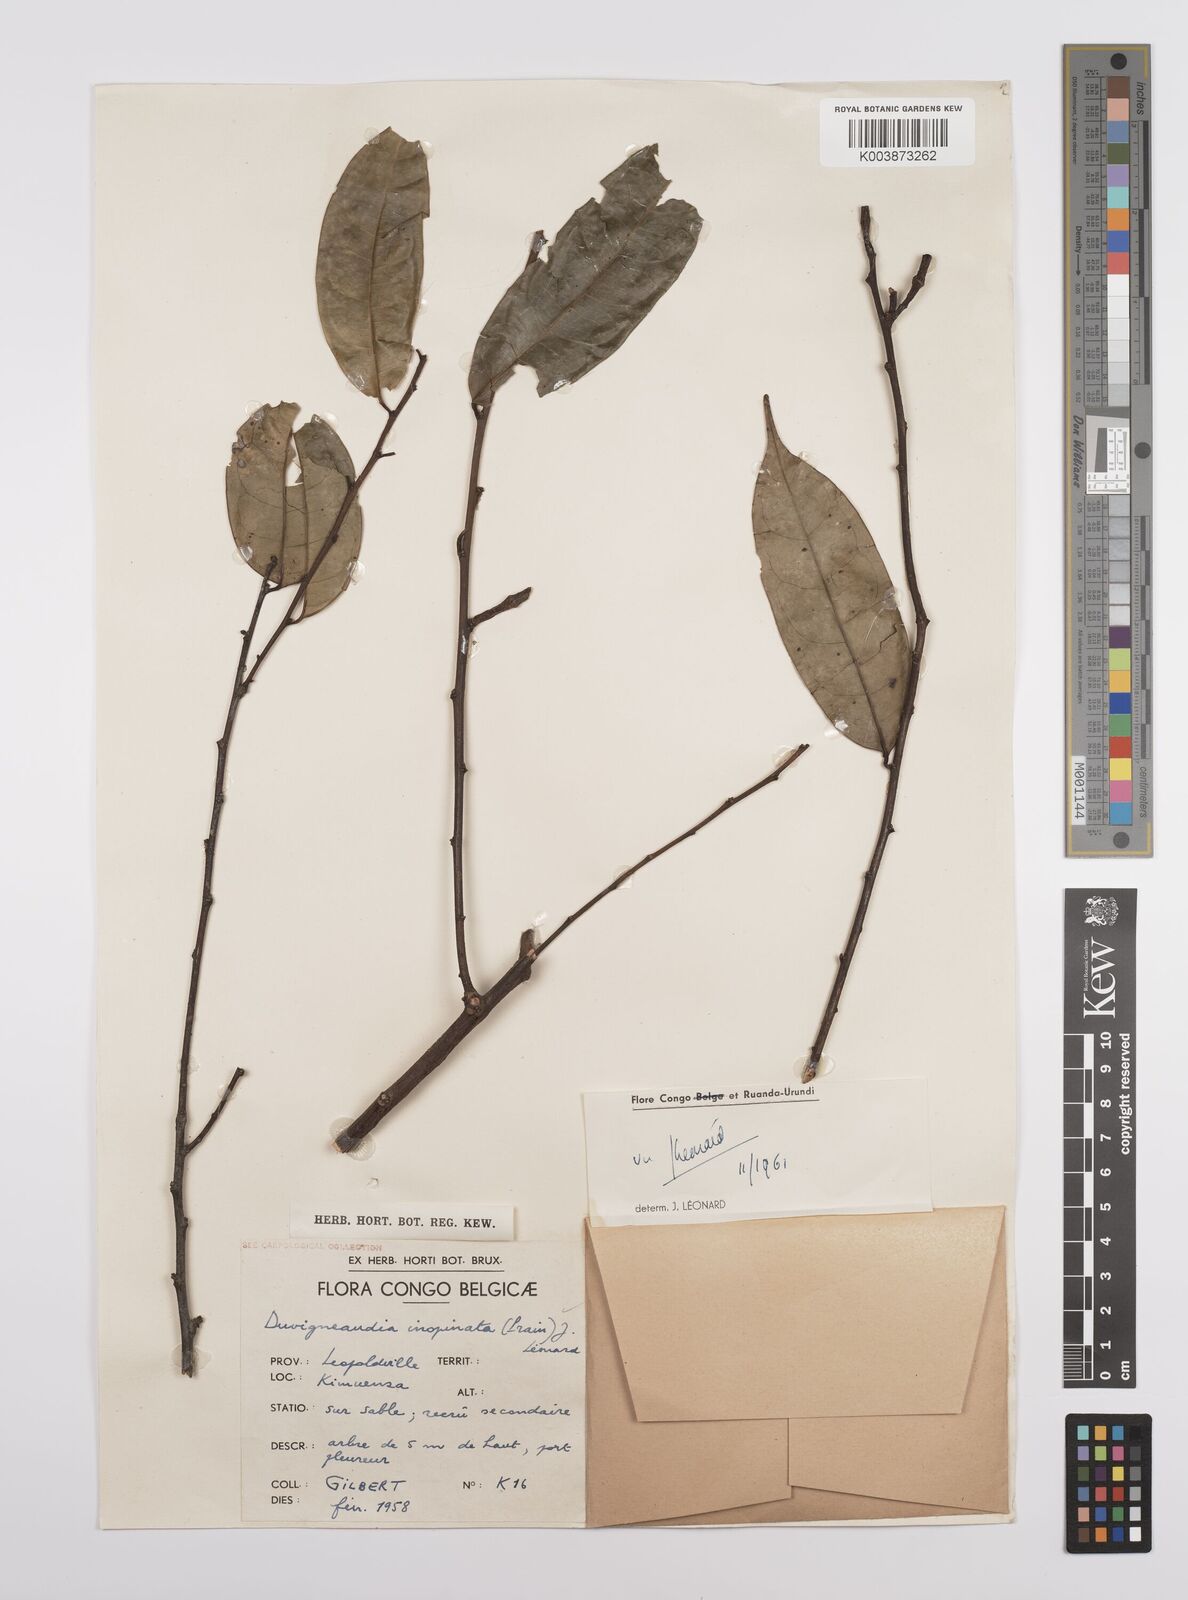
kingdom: Plantae
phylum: Tracheophyta
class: Magnoliopsida
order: Malpighiales
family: Euphorbiaceae
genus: Gymnanthes
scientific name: Gymnanthes
